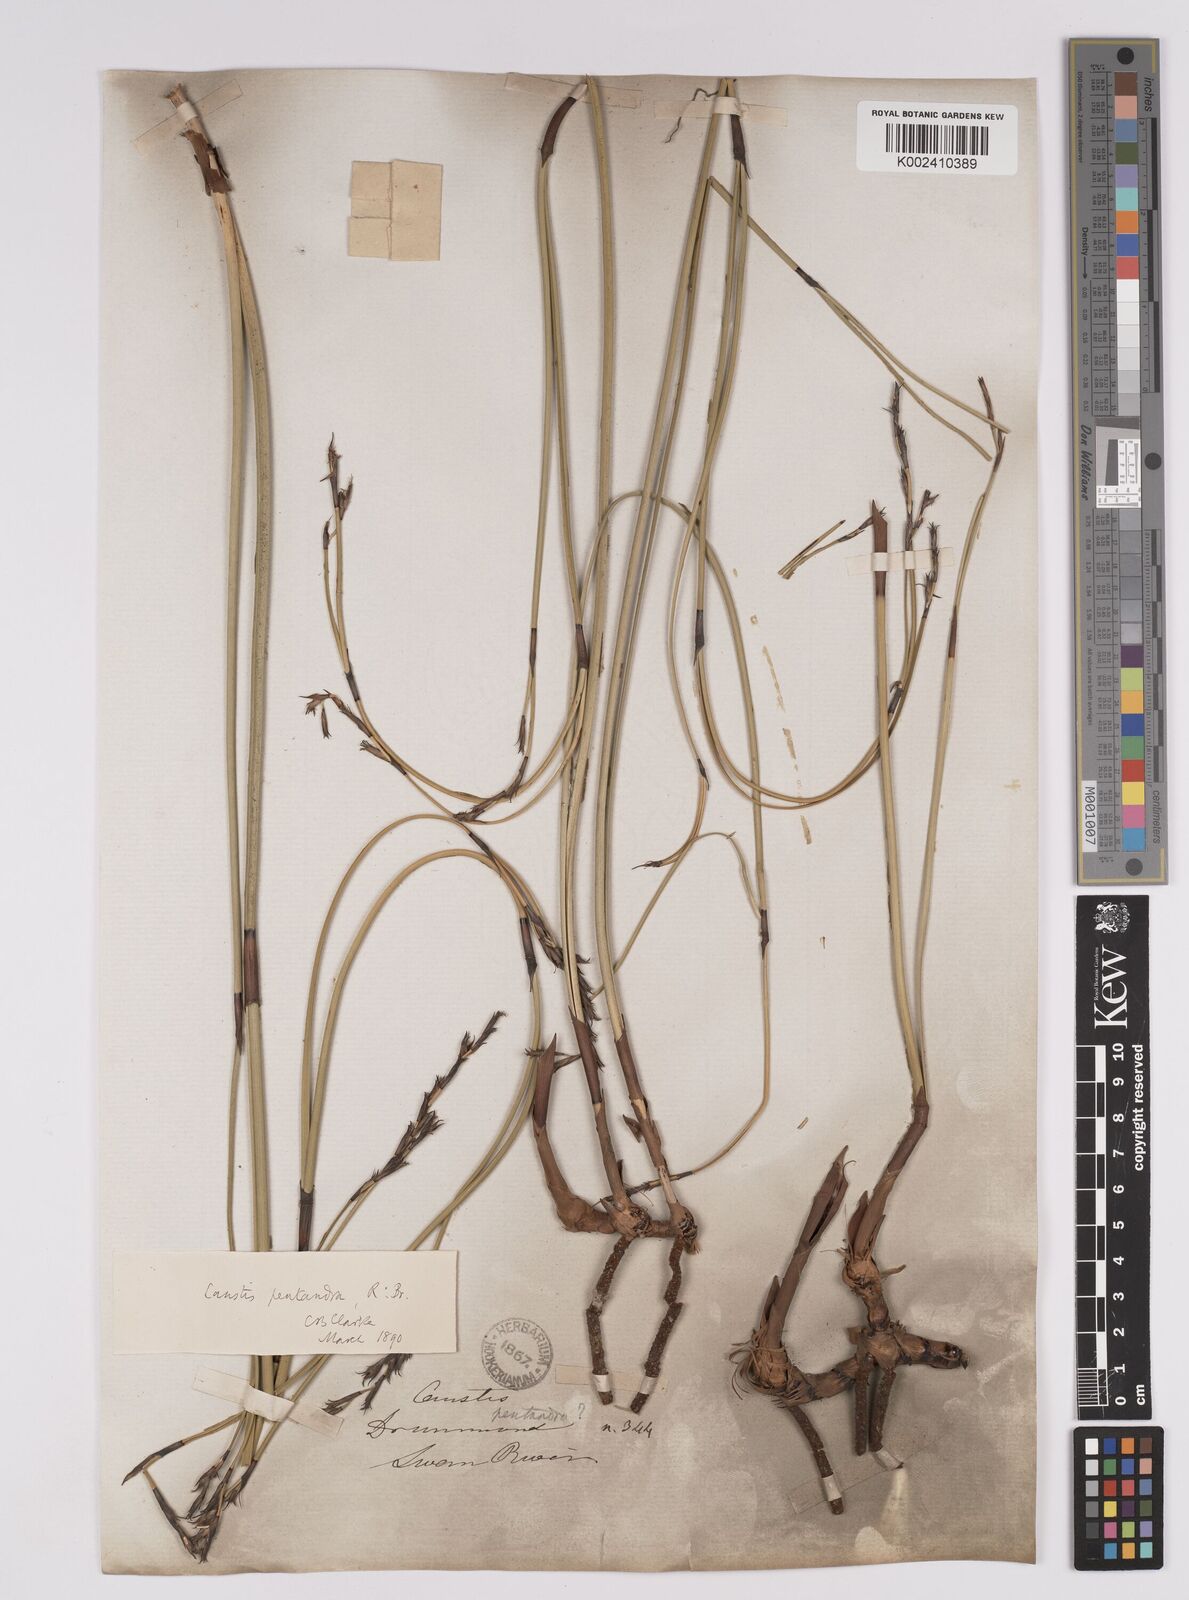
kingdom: Plantae
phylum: Tracheophyta
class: Liliopsida
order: Poales
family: Cyperaceae
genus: Caustis
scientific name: Caustis pentandra
